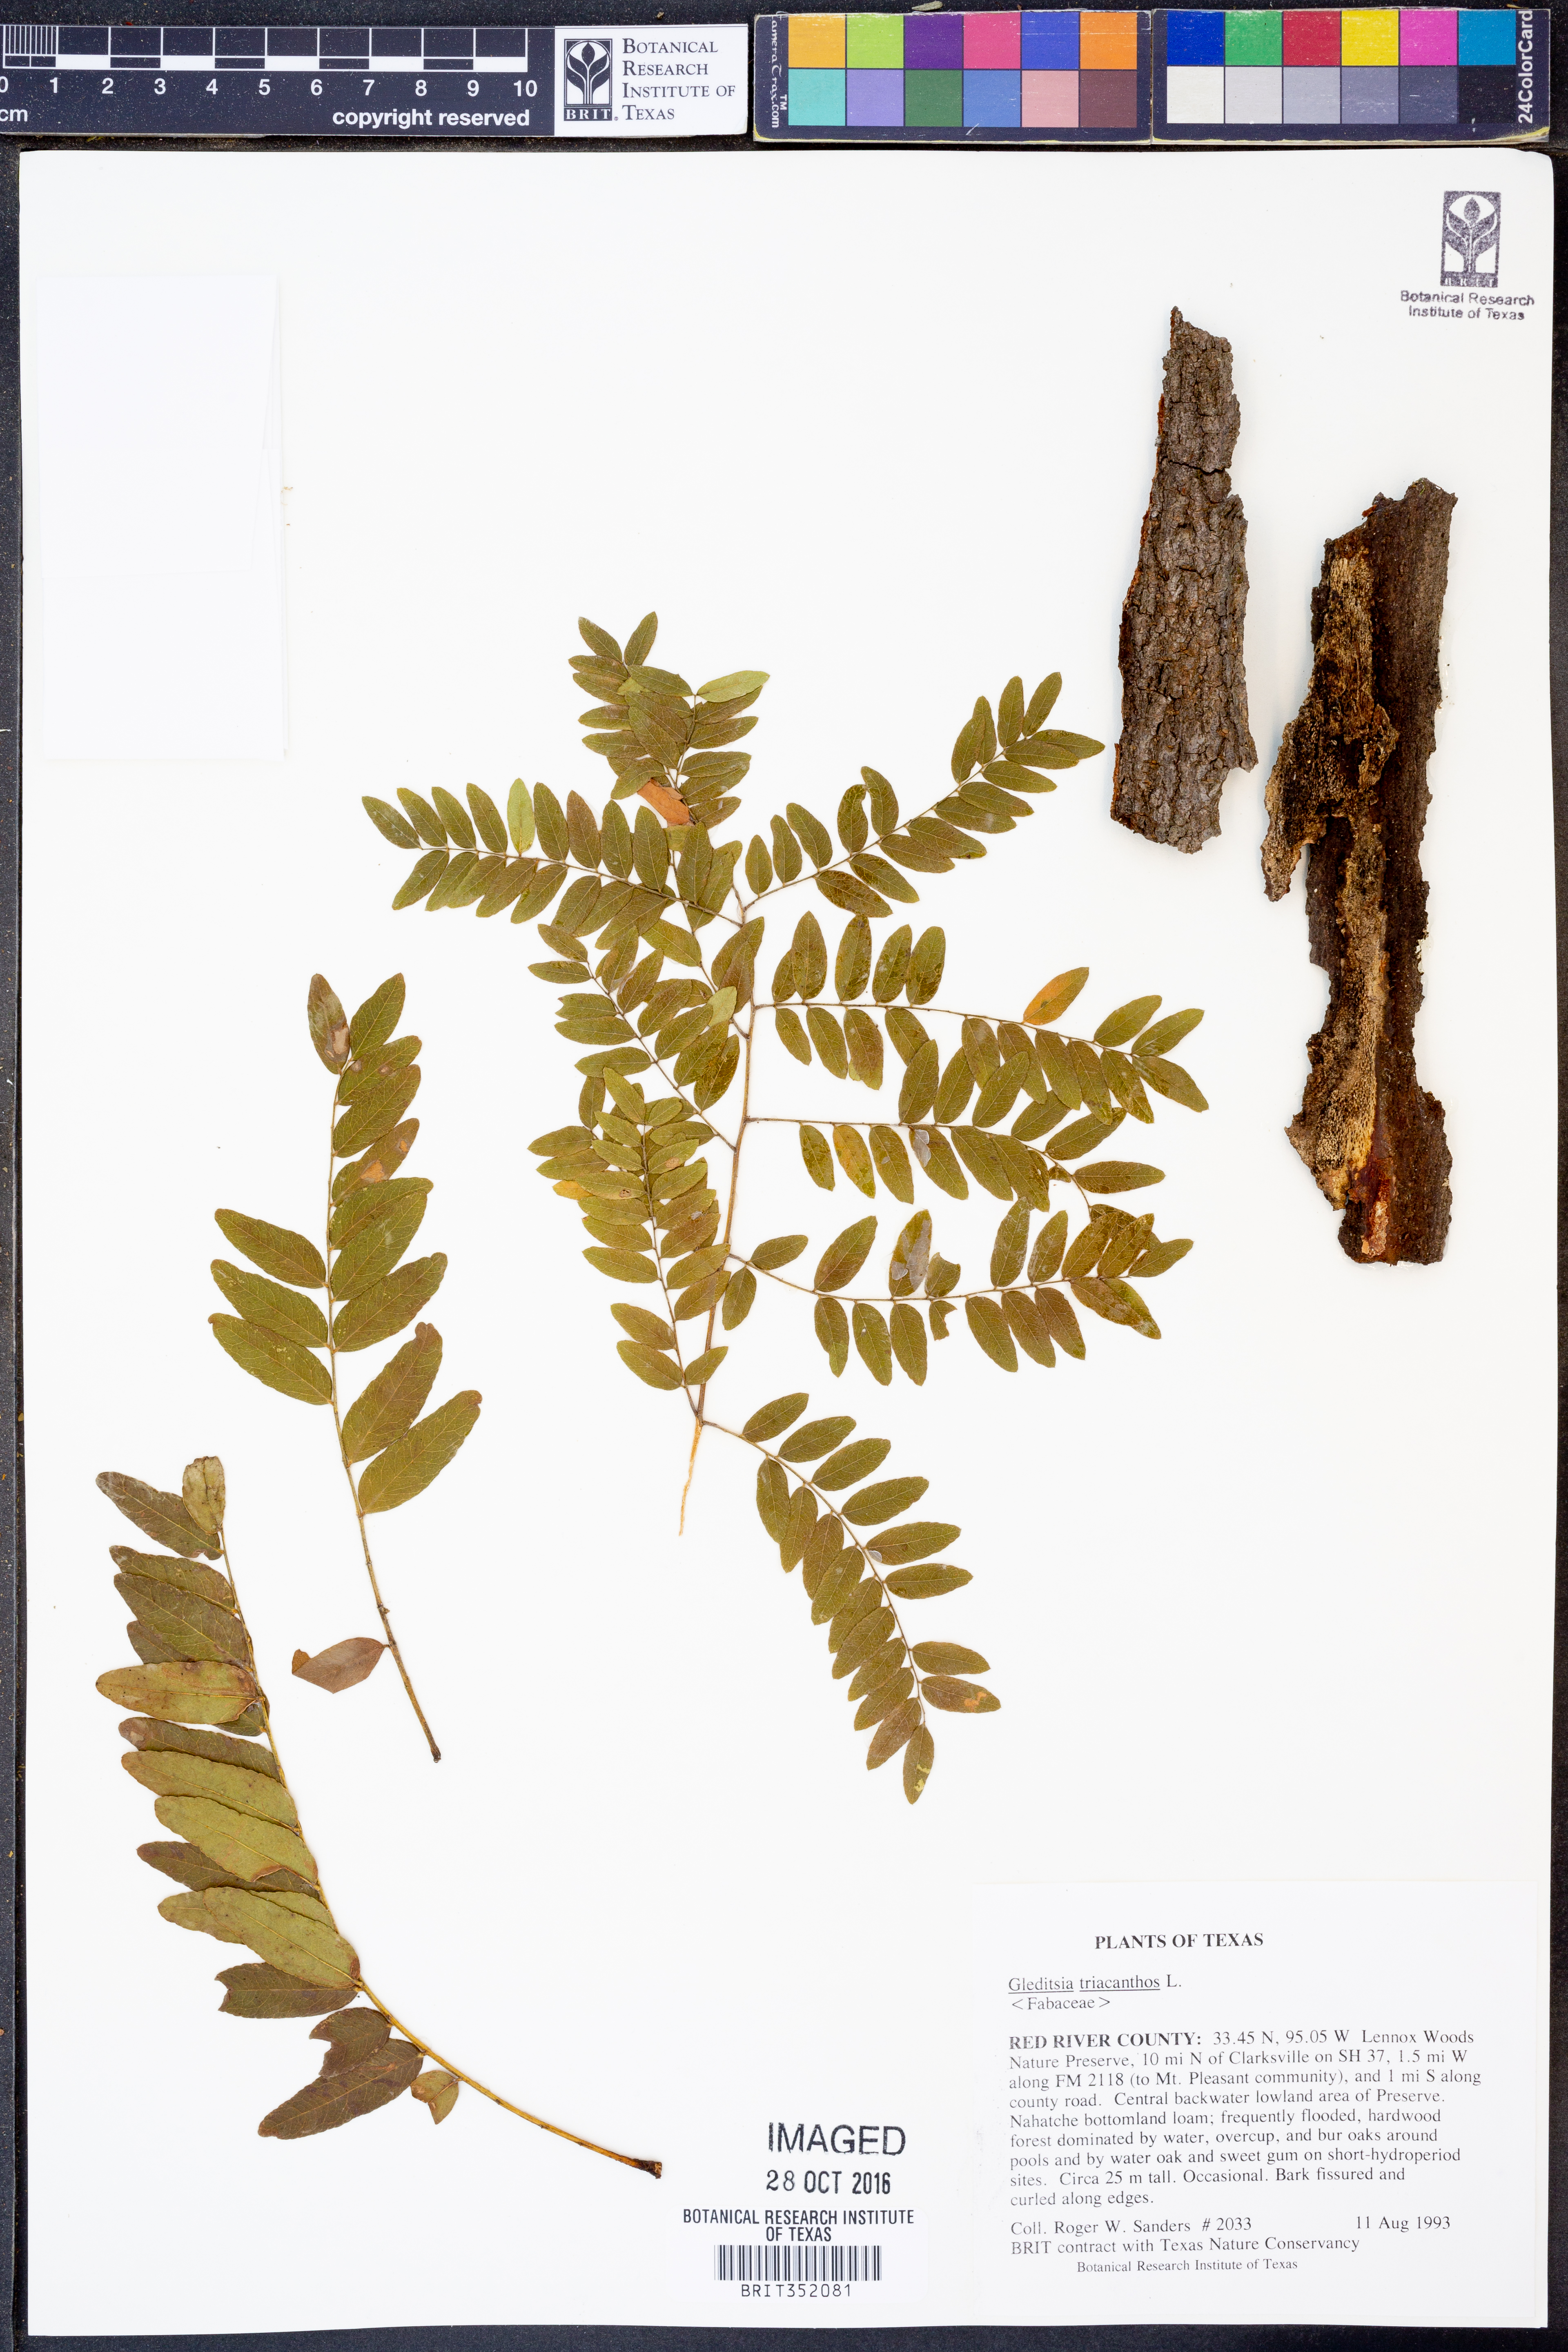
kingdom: Plantae
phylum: Tracheophyta
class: Magnoliopsida
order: Fabales
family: Fabaceae
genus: Gleditsia
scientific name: Gleditsia triacanthos
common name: Common honeylocust
